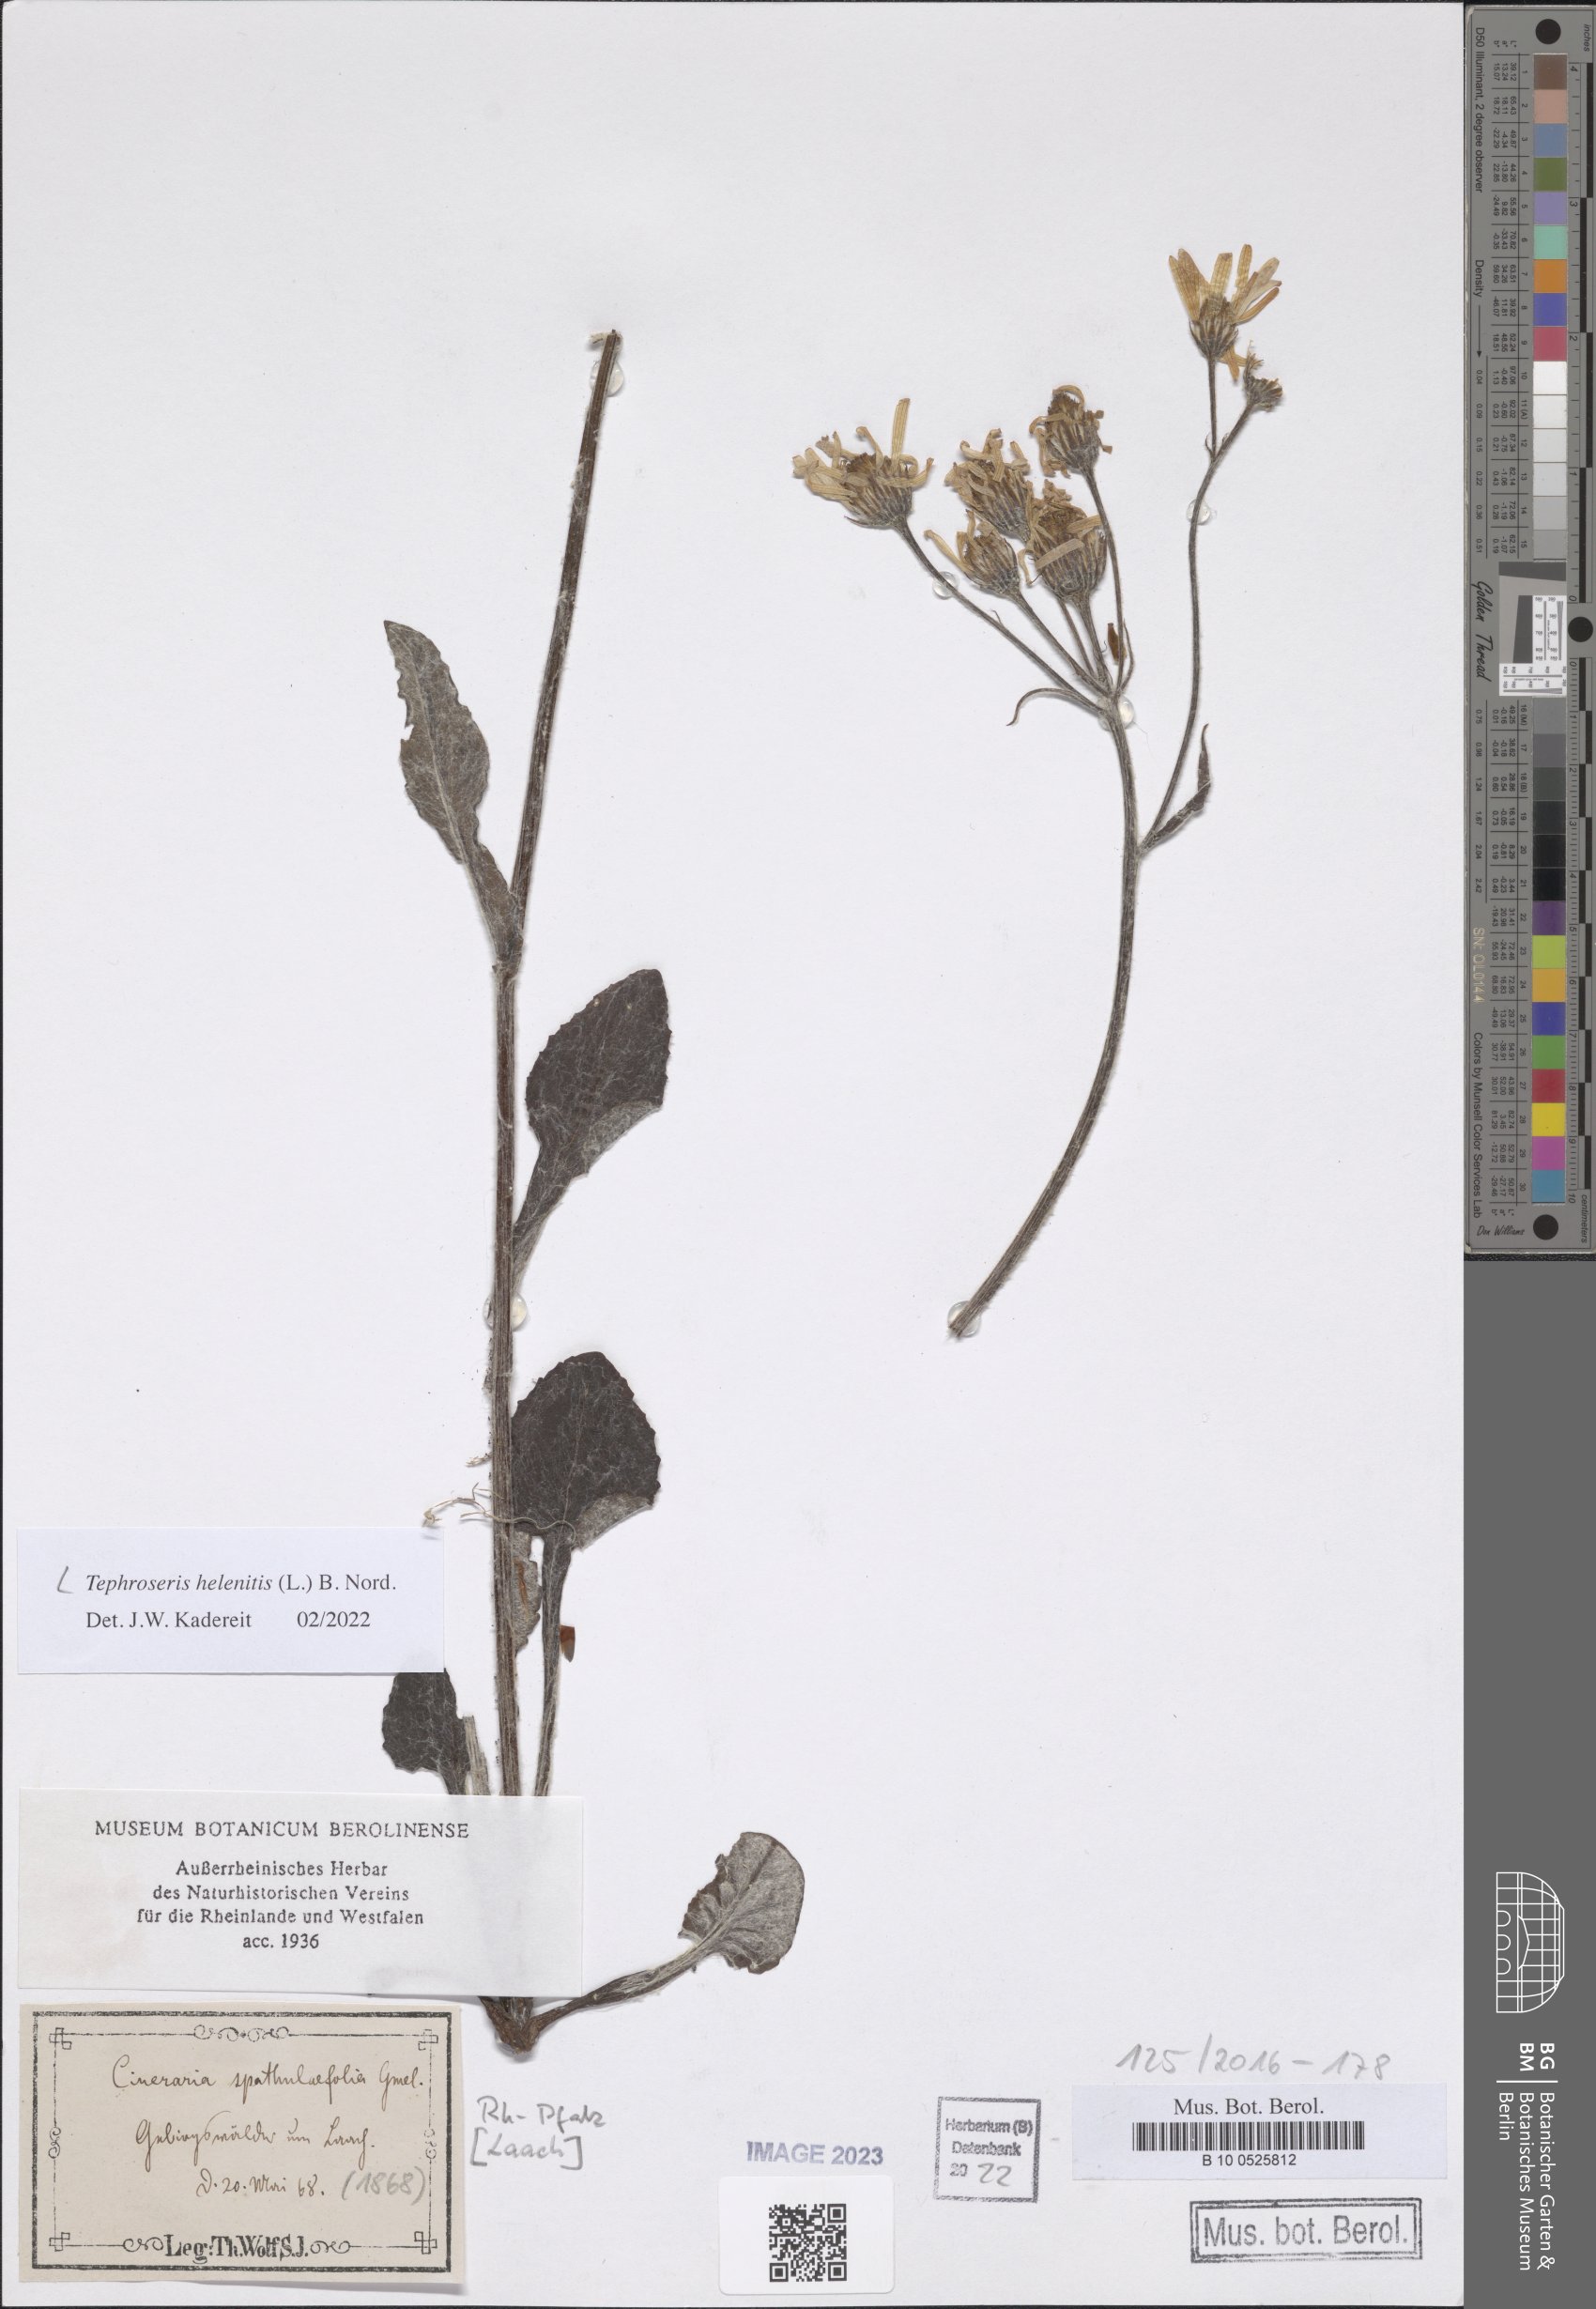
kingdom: Plantae
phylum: Tracheophyta
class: Magnoliopsida
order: Asterales
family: Asteraceae
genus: Tephroseris
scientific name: Tephroseris helenitis
